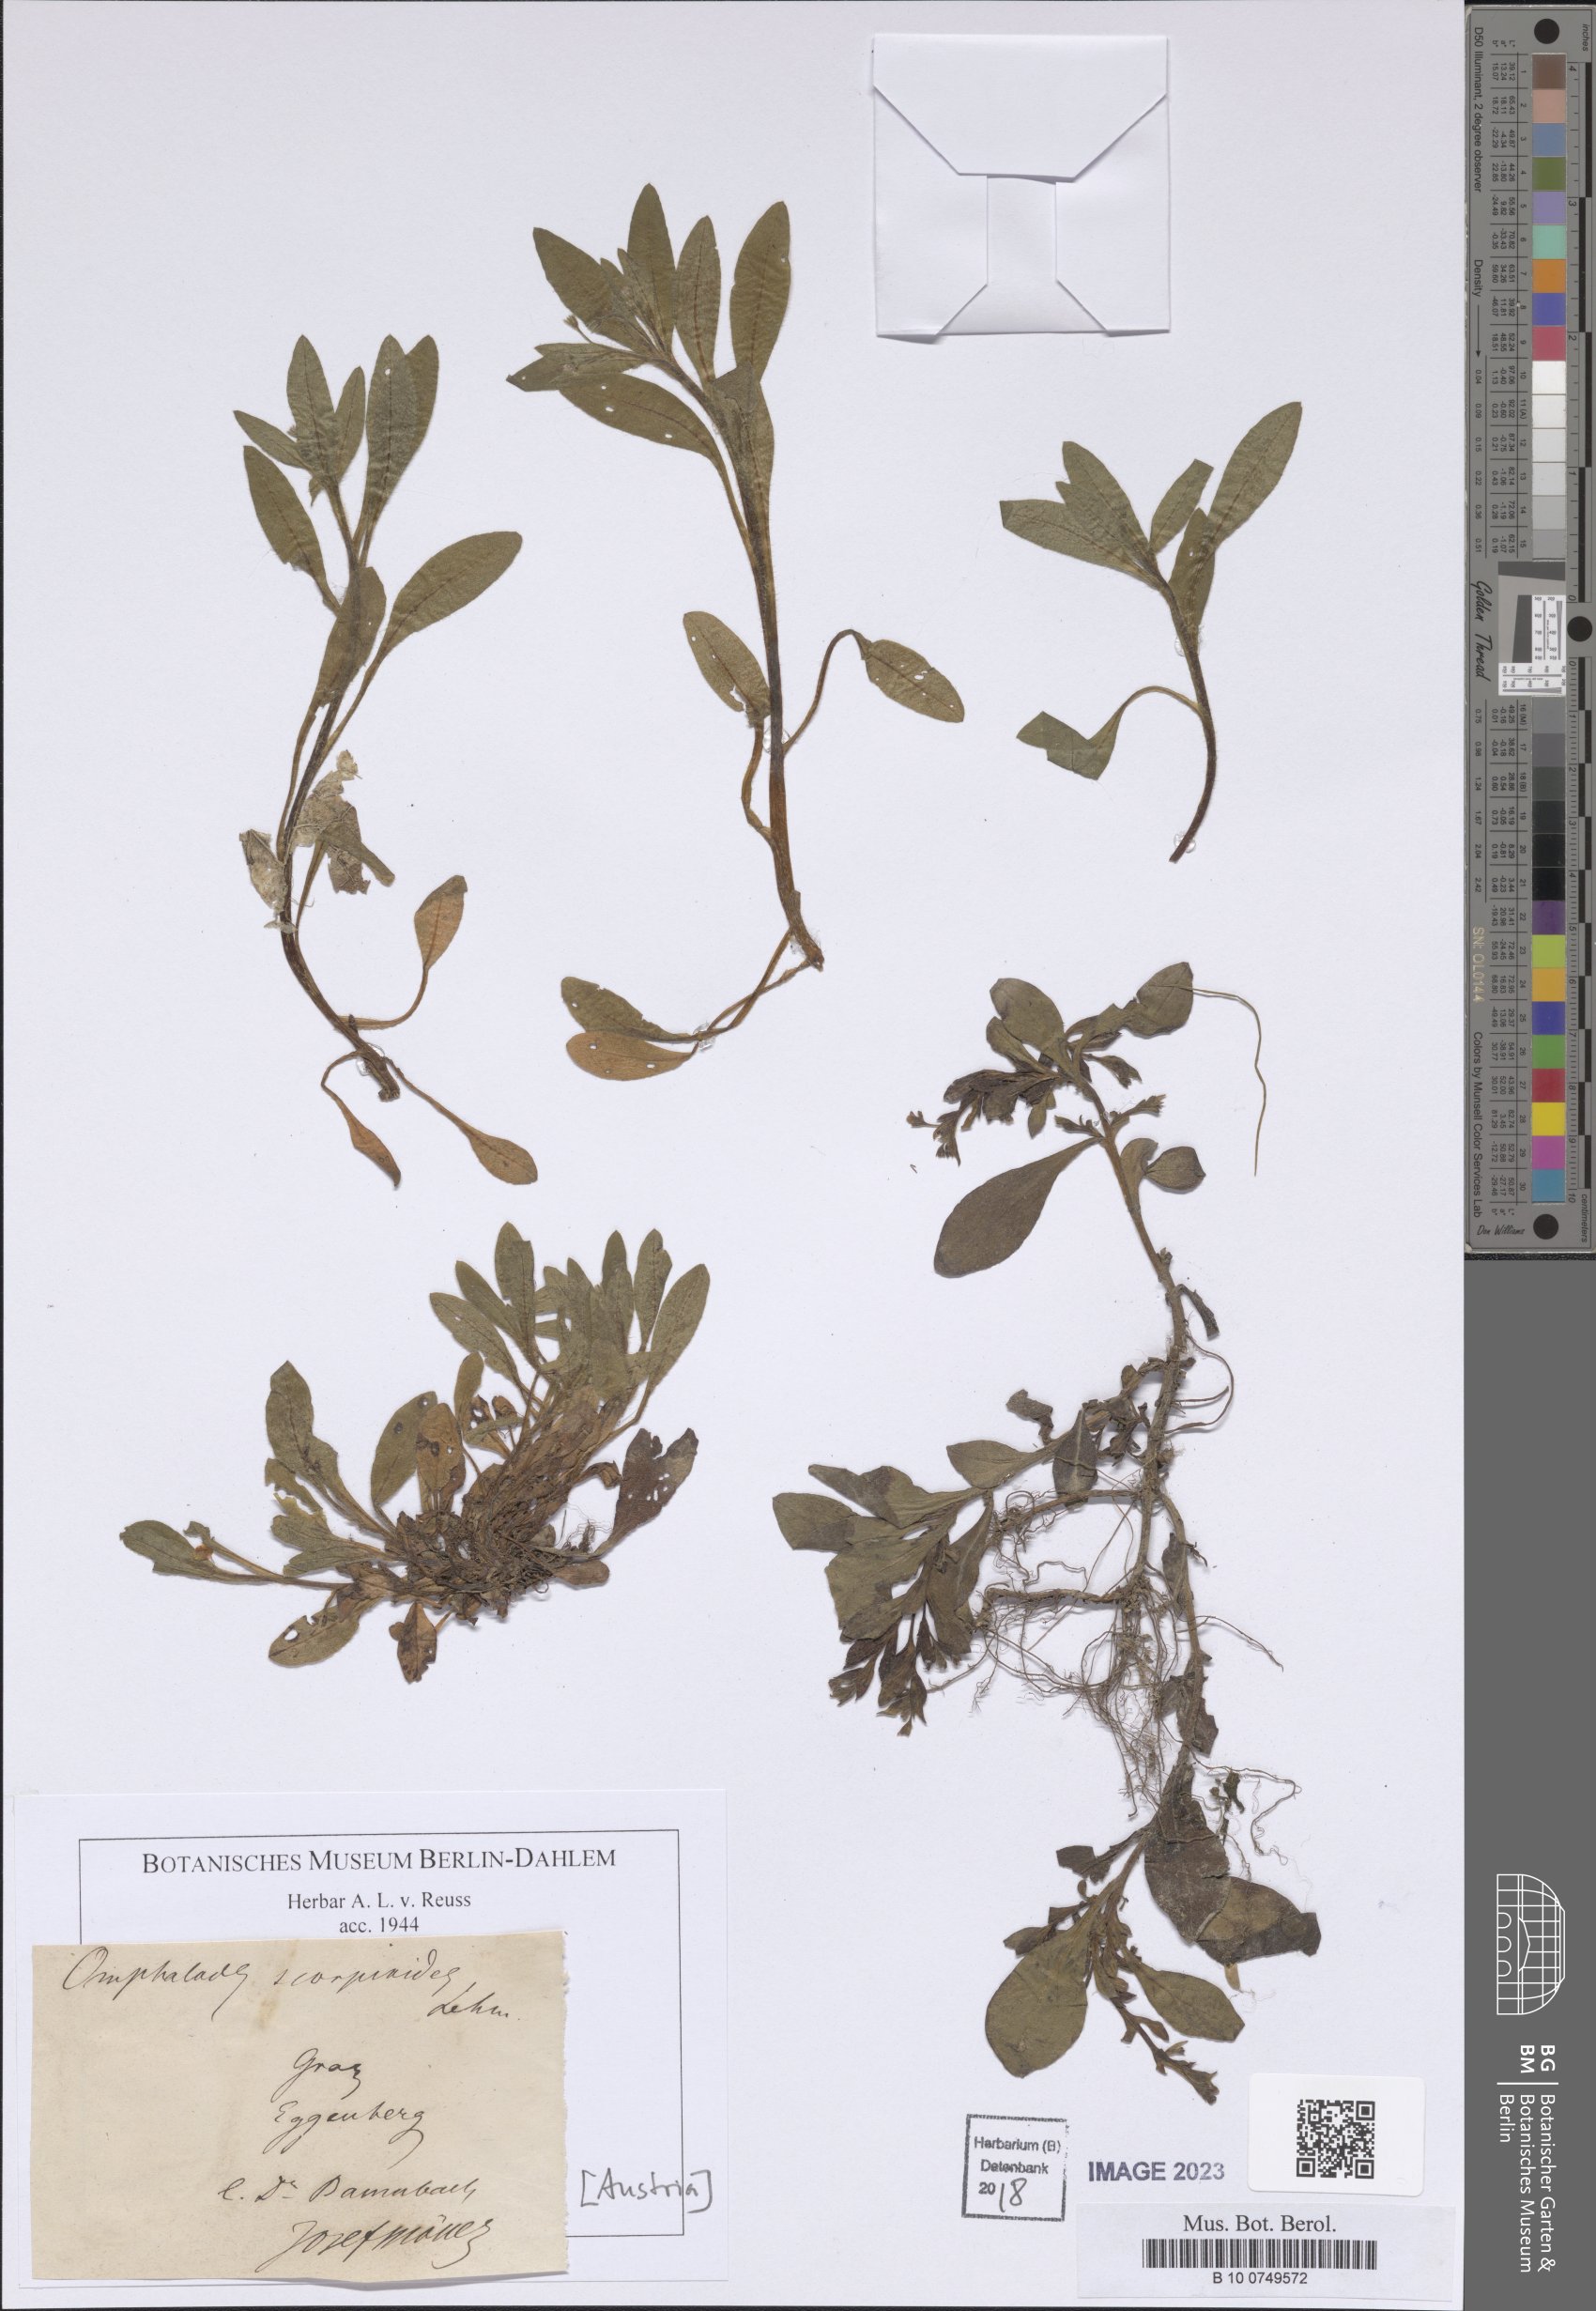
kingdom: Plantae
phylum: Tracheophyta
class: Magnoliopsida
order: Boraginales
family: Boraginaceae
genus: Memoremea
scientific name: Memoremea scorpioides
